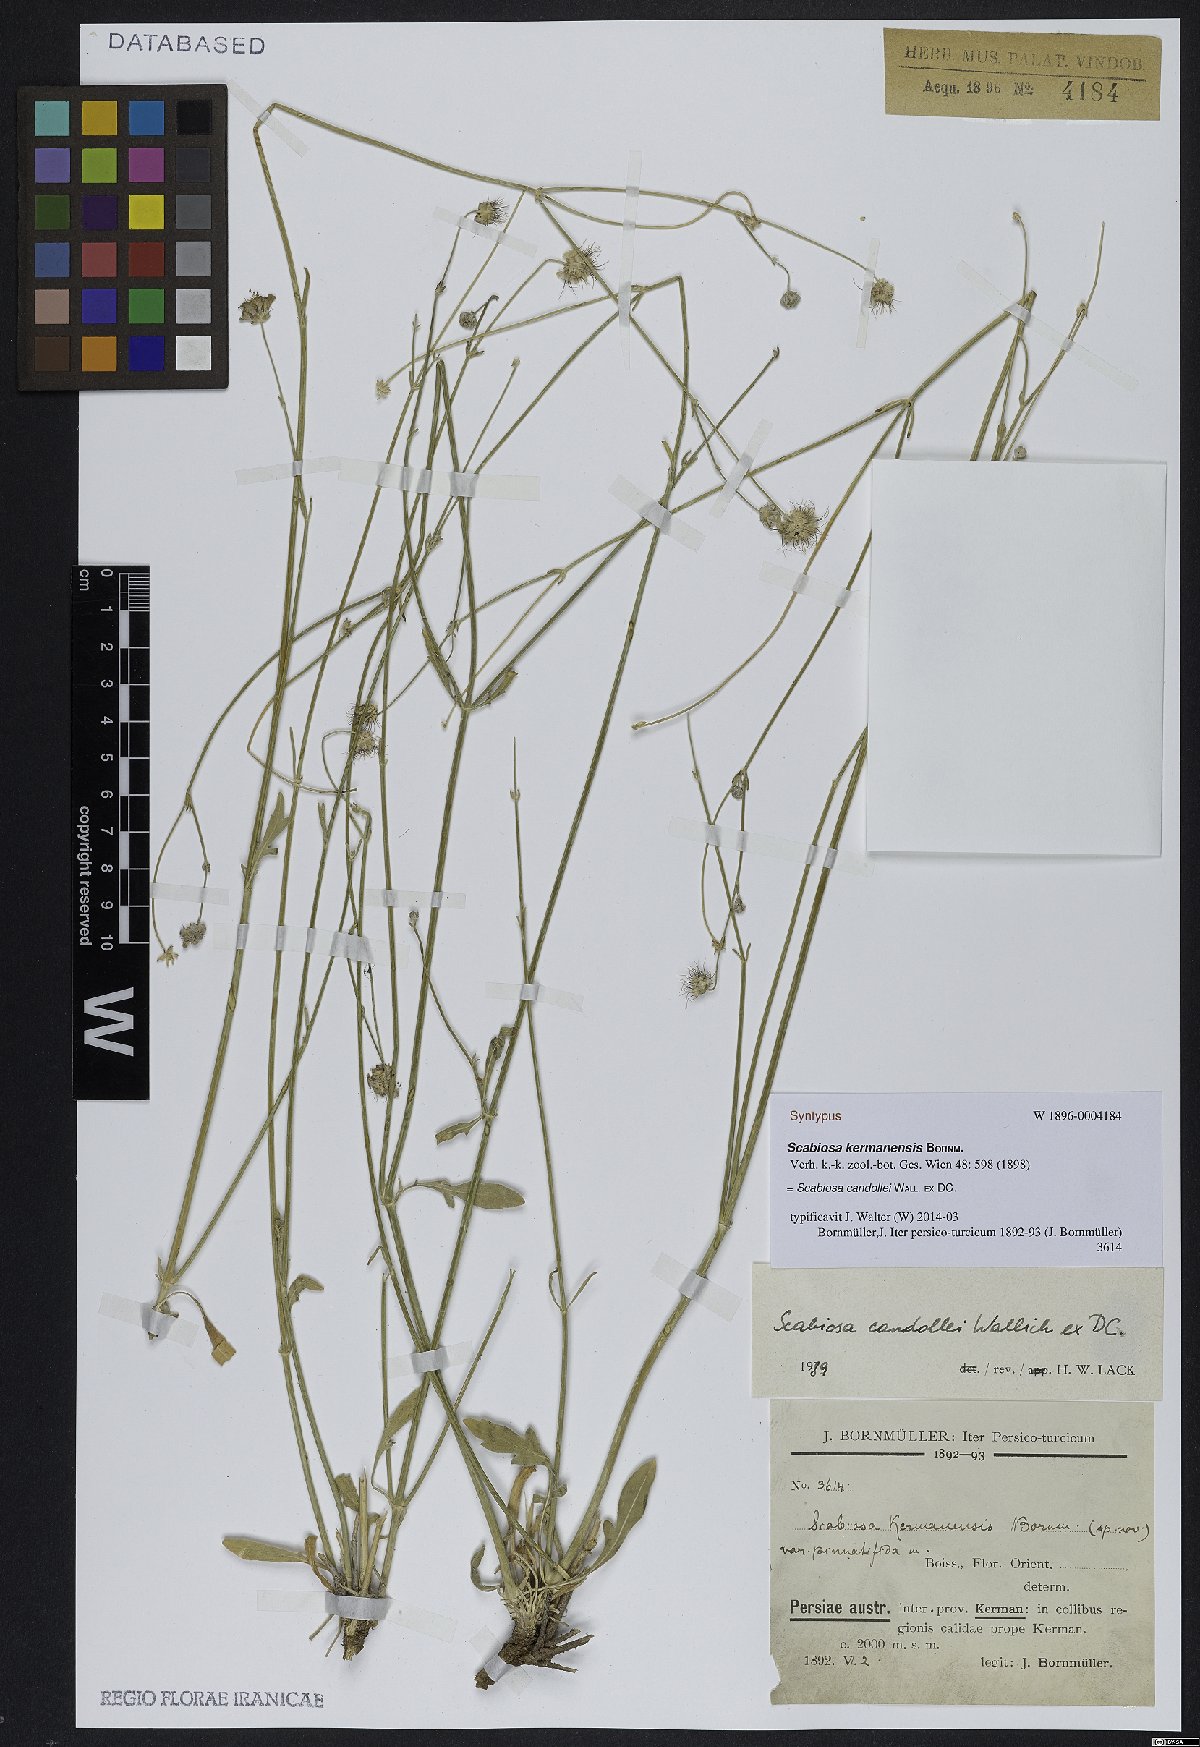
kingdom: Plantae
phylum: Tracheophyta
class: Magnoliopsida
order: Dipsacales
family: Caprifoliaceae
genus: Lomelosia
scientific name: Lomelosia candollei
